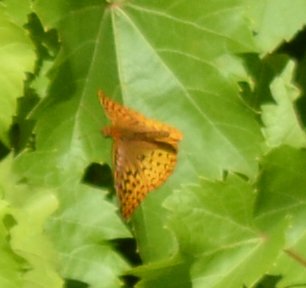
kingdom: Animalia
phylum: Arthropoda
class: Insecta
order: Lepidoptera
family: Nymphalidae
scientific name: Nymphalidae
